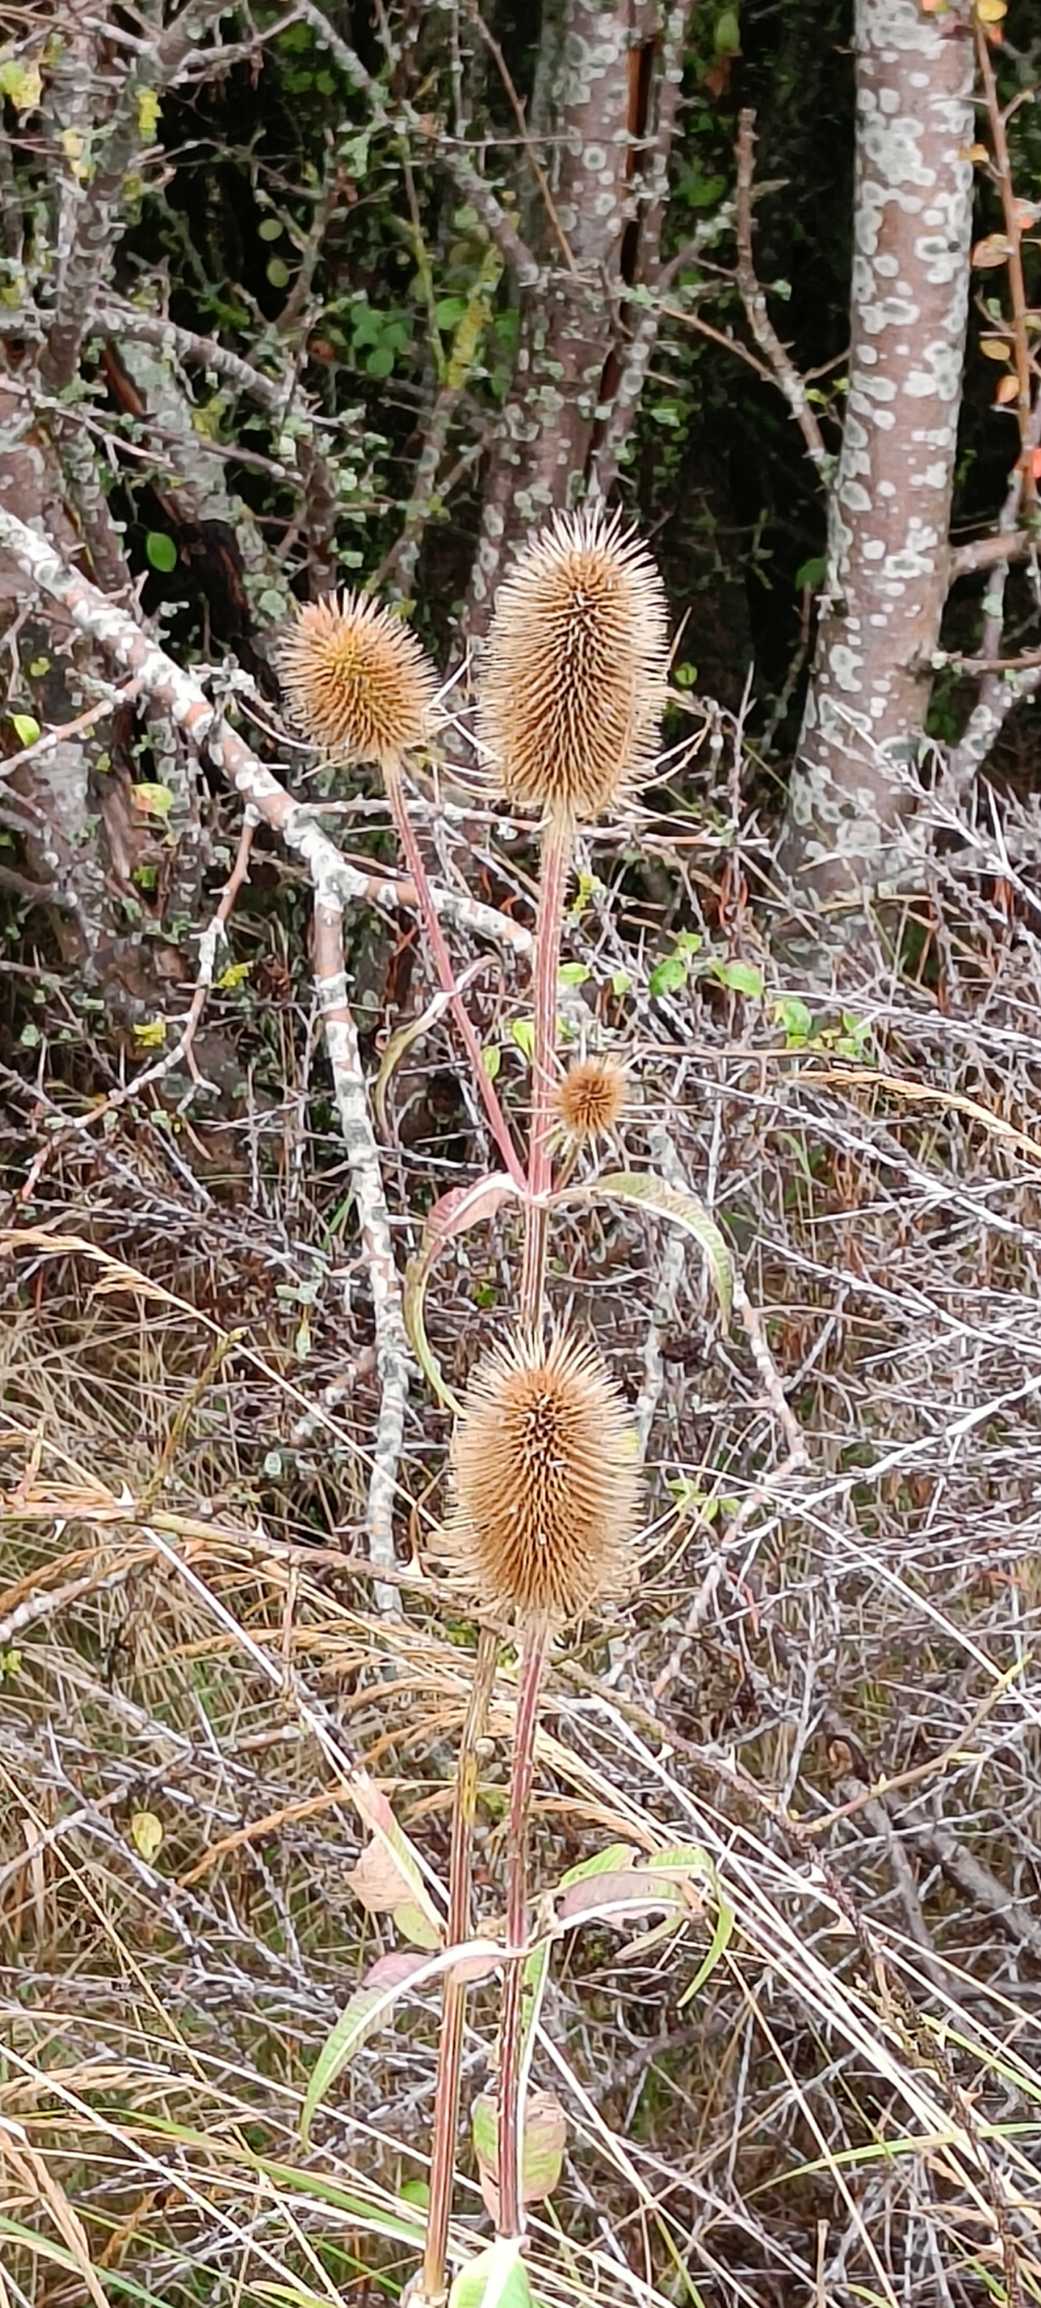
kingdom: Plantae
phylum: Tracheophyta
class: Magnoliopsida
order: Dipsacales
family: Caprifoliaceae
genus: Dipsacus
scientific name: Dipsacus fullonum
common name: Gærde-kartebolle
